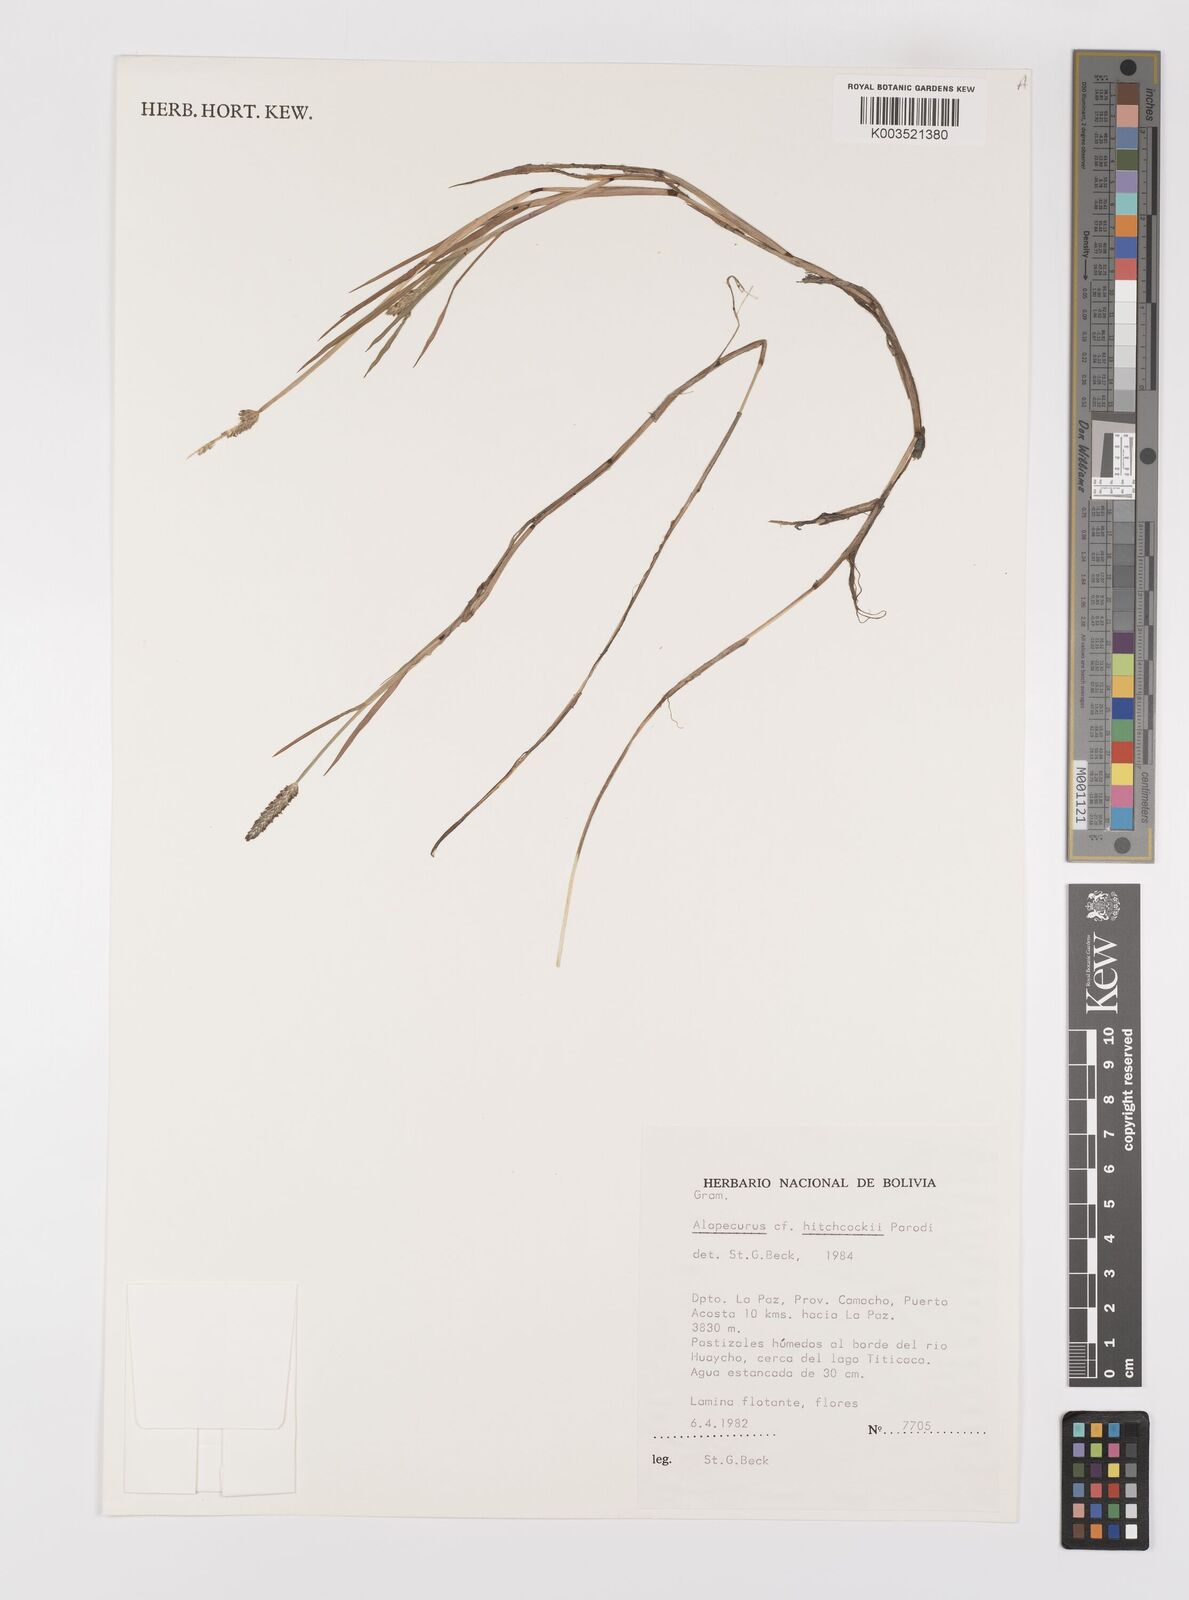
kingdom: Plantae
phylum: Tracheophyta
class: Liliopsida
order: Poales
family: Poaceae
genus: Alopecurus
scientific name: Alopecurus hitchcockii
